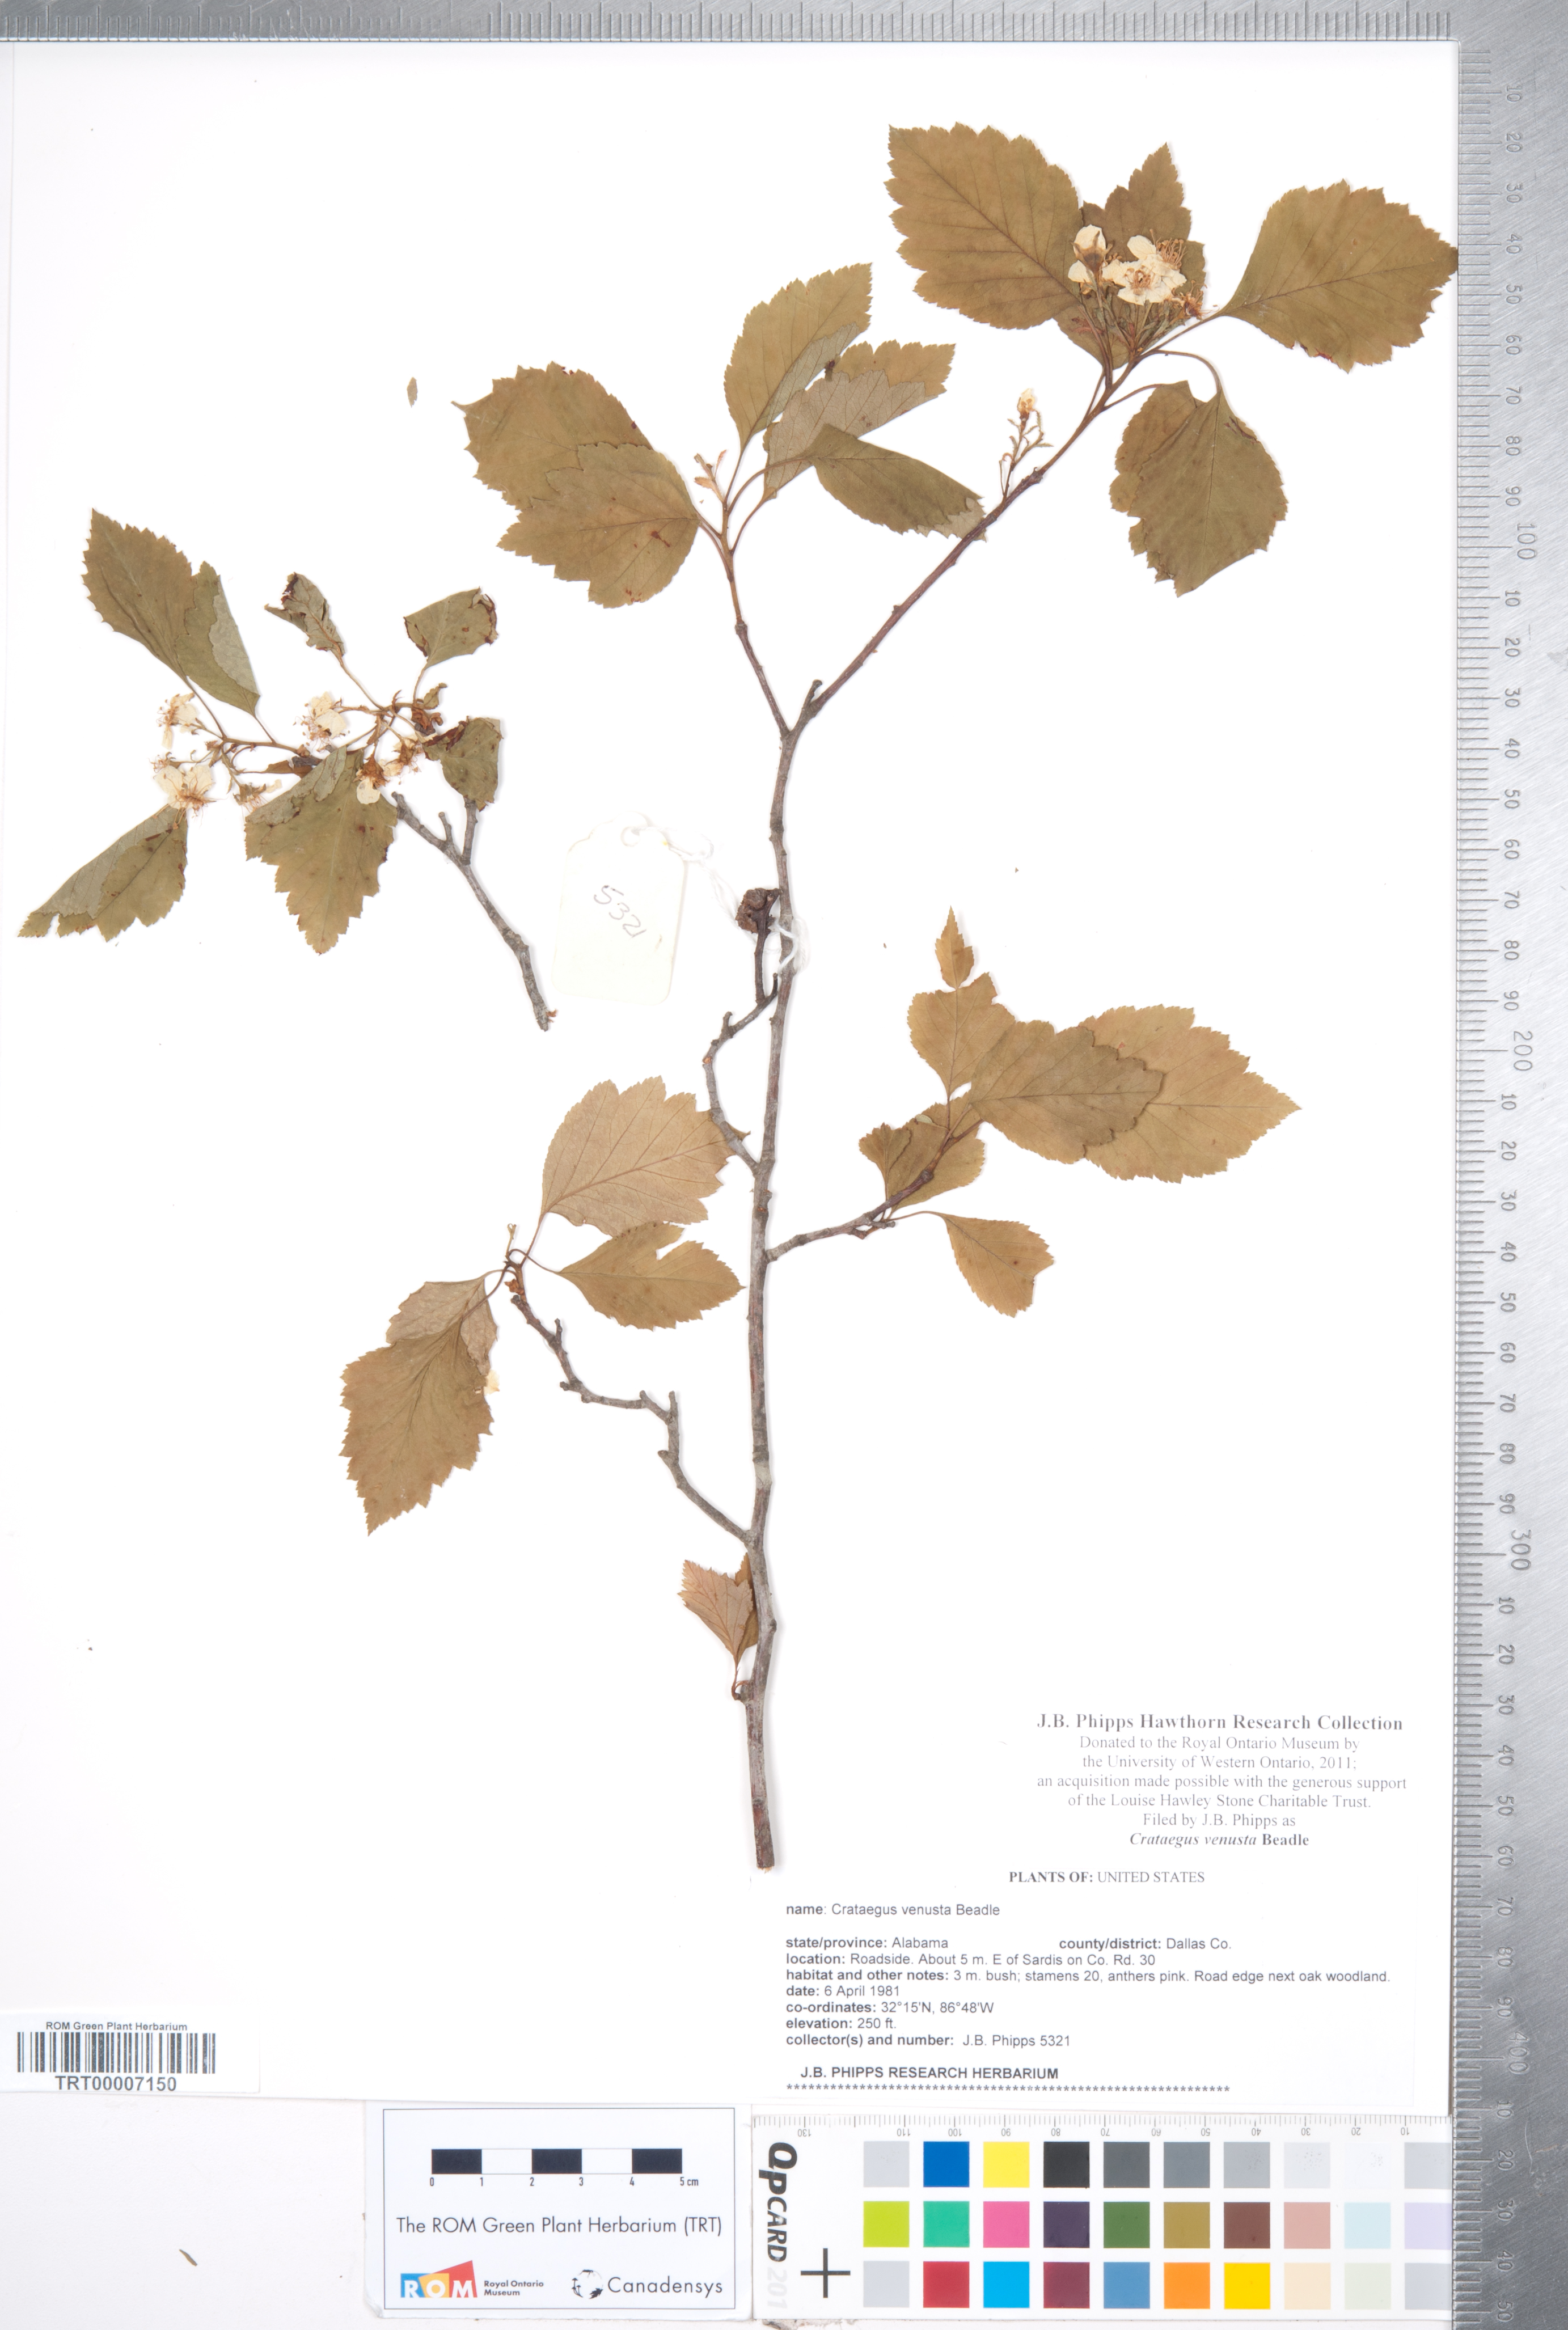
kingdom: Plantae
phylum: Tracheophyta
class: Magnoliopsida
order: Rosales
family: Rosaceae
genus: Crataegus
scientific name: Crataegus venusta
